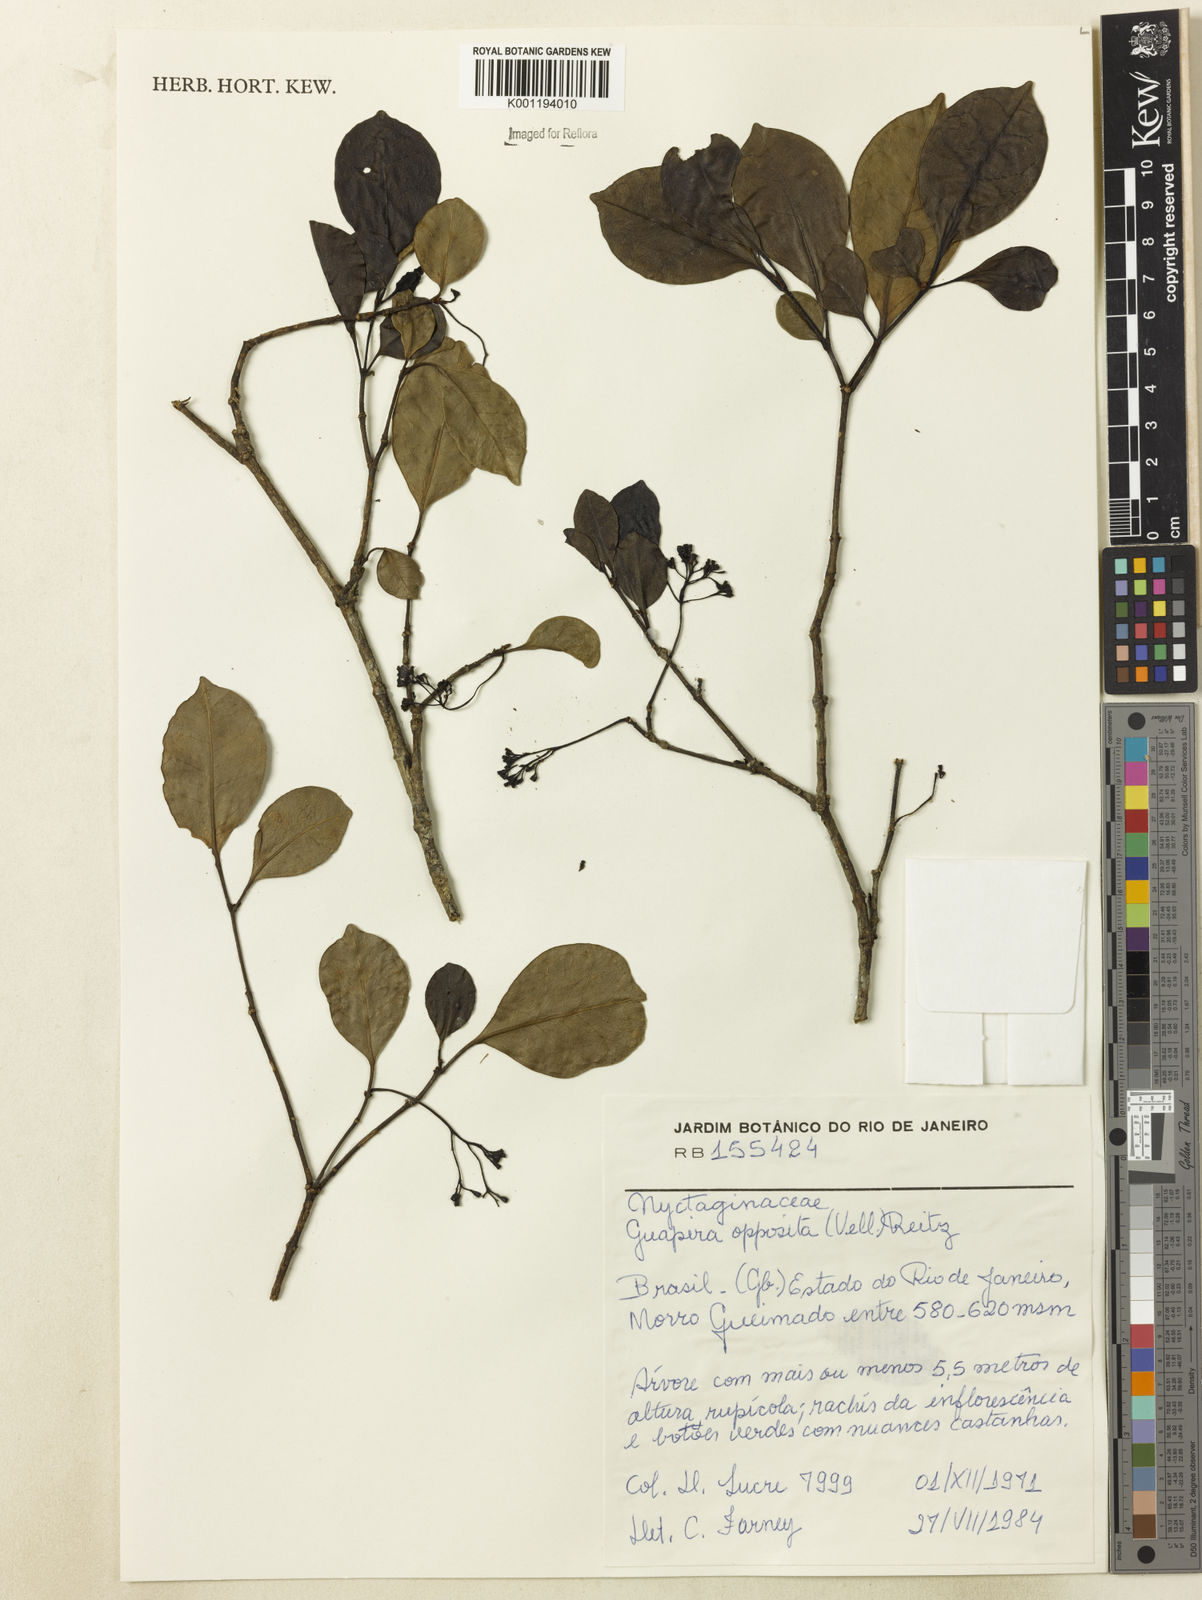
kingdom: Plantae
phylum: Tracheophyta
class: Magnoliopsida
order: Caryophyllales
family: Nyctaginaceae
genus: Guapira
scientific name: Guapira opposita
